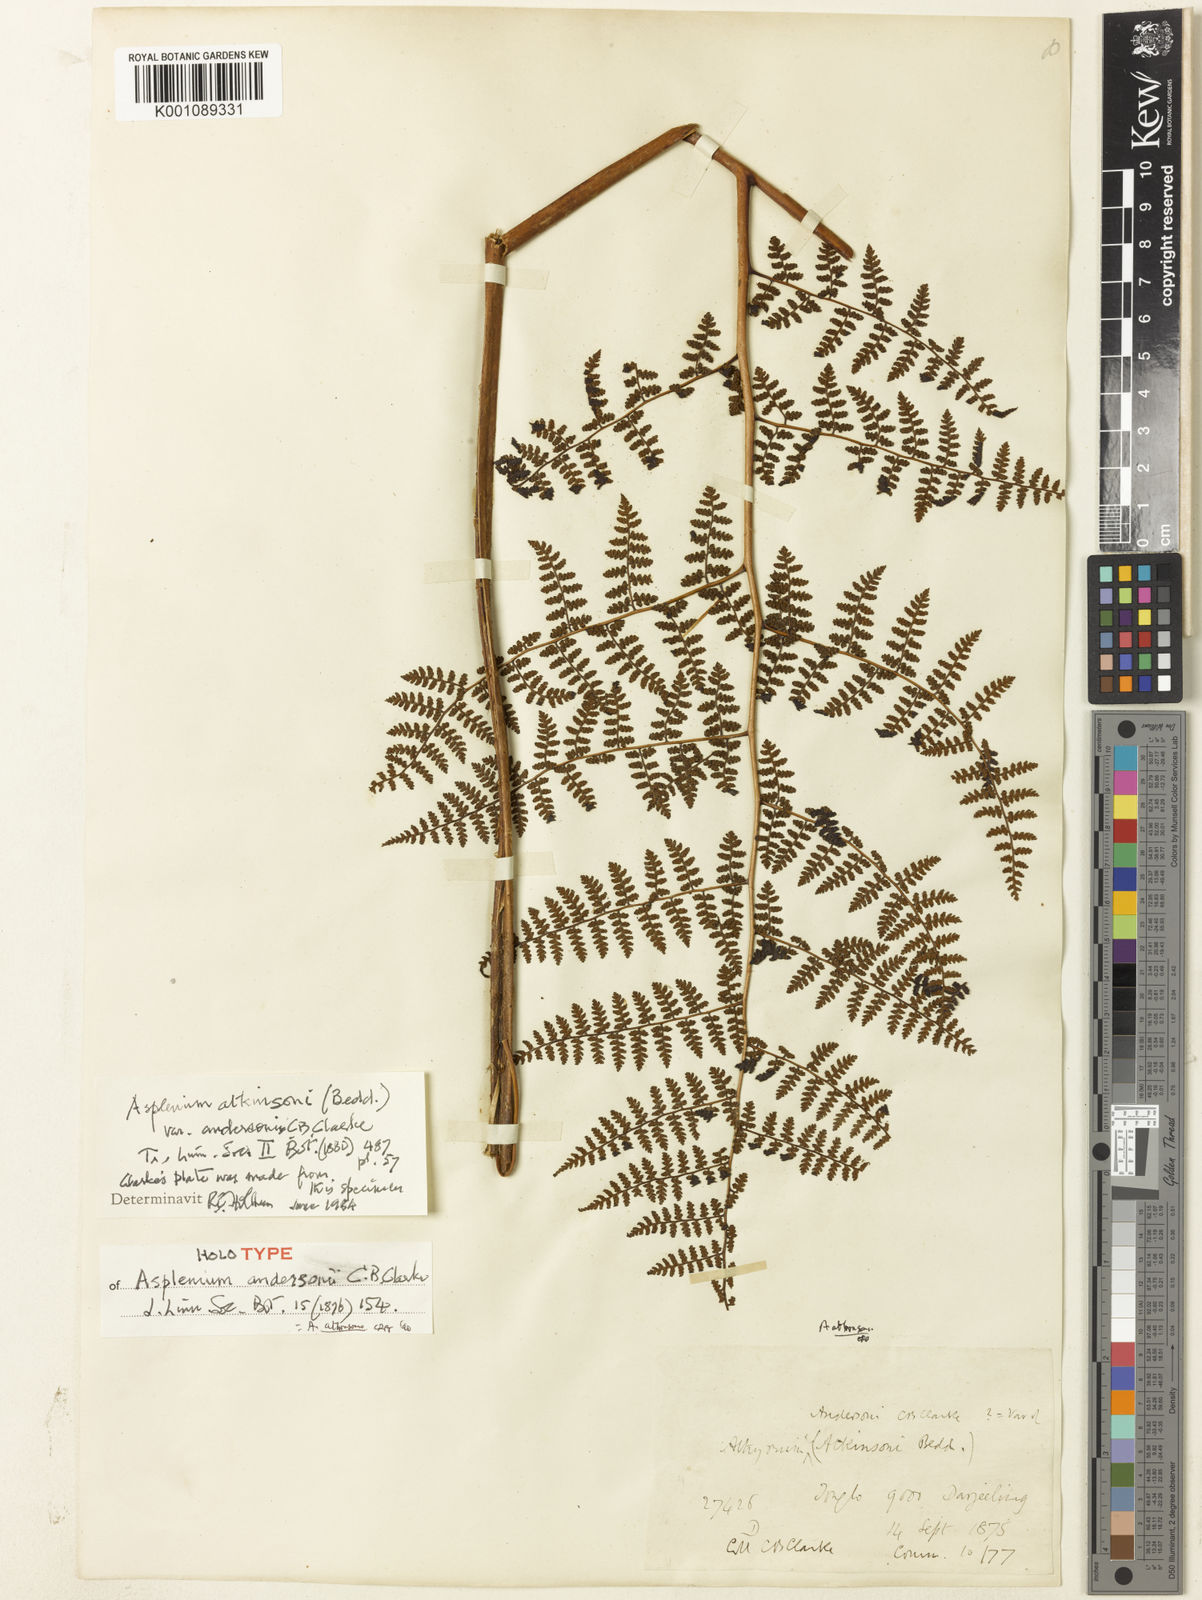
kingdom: Plantae
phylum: Tracheophyta
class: Polypodiopsida
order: Polypodiales
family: Athyriaceae
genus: Athyrium
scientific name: Athyrium
